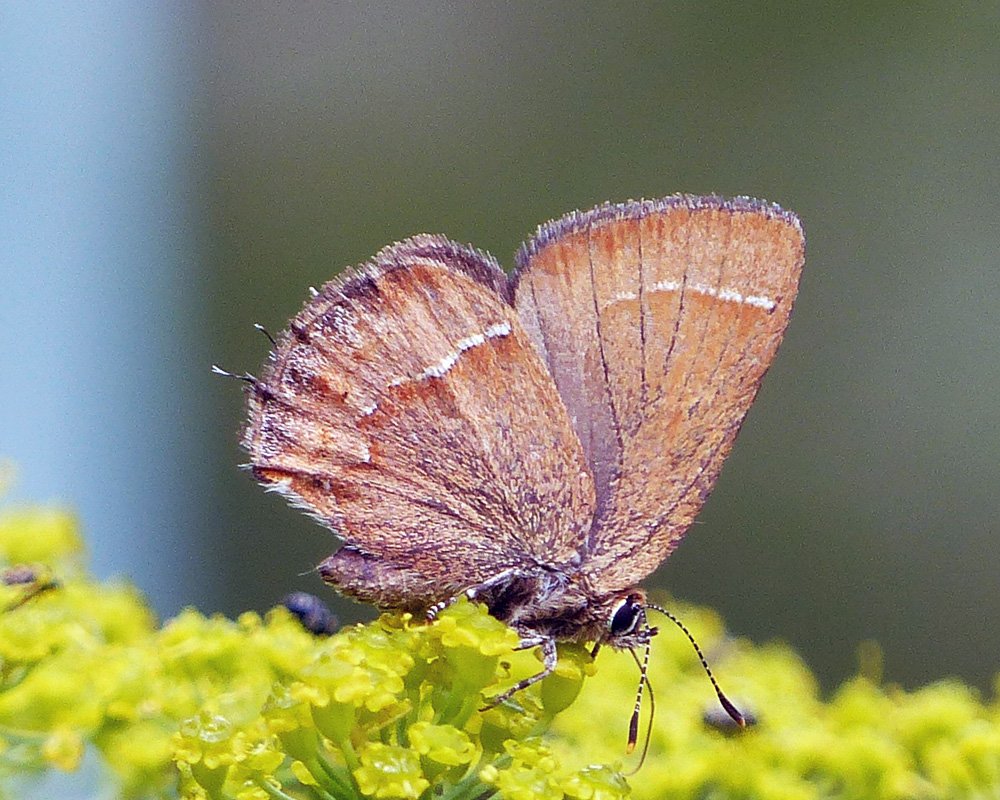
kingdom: Animalia
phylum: Arthropoda
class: Insecta
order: Lepidoptera
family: Lycaenidae
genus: Mitoura
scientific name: Mitoura nelsoni
